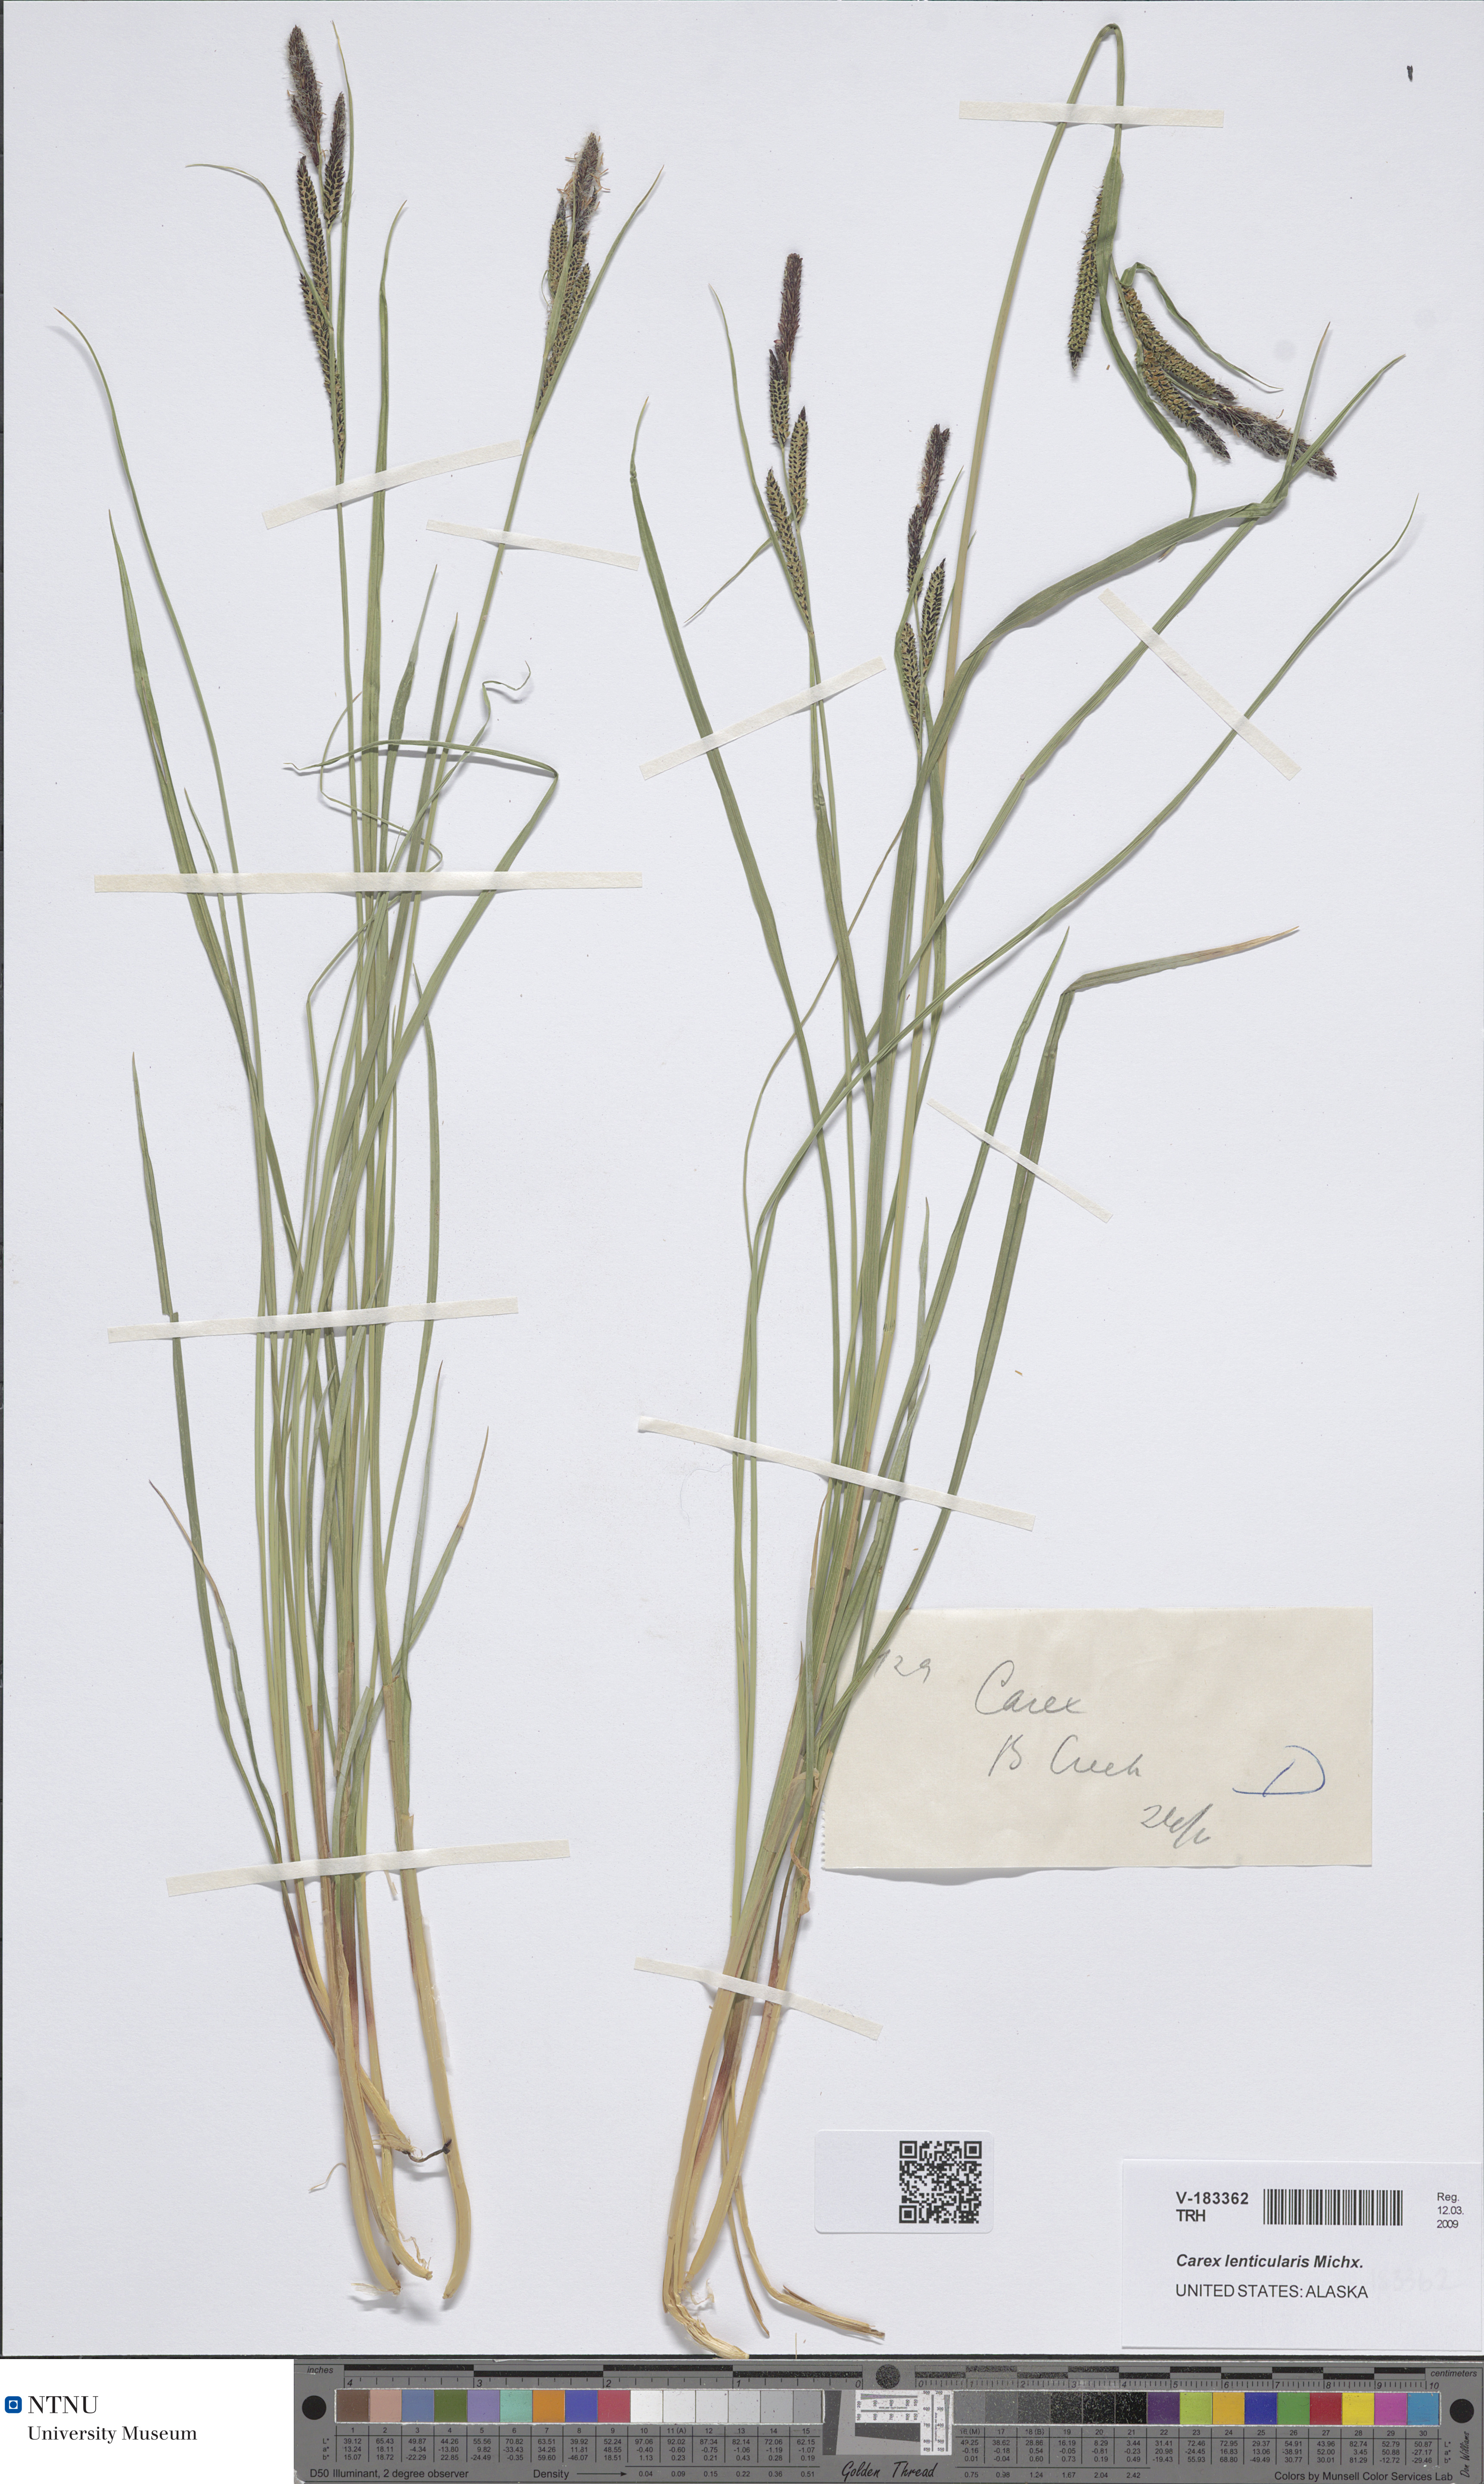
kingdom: Plantae
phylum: Tracheophyta
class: Liliopsida
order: Poales
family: Cyperaceae
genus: Carex
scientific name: Carex lenticularis
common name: Lakeshore sedge
